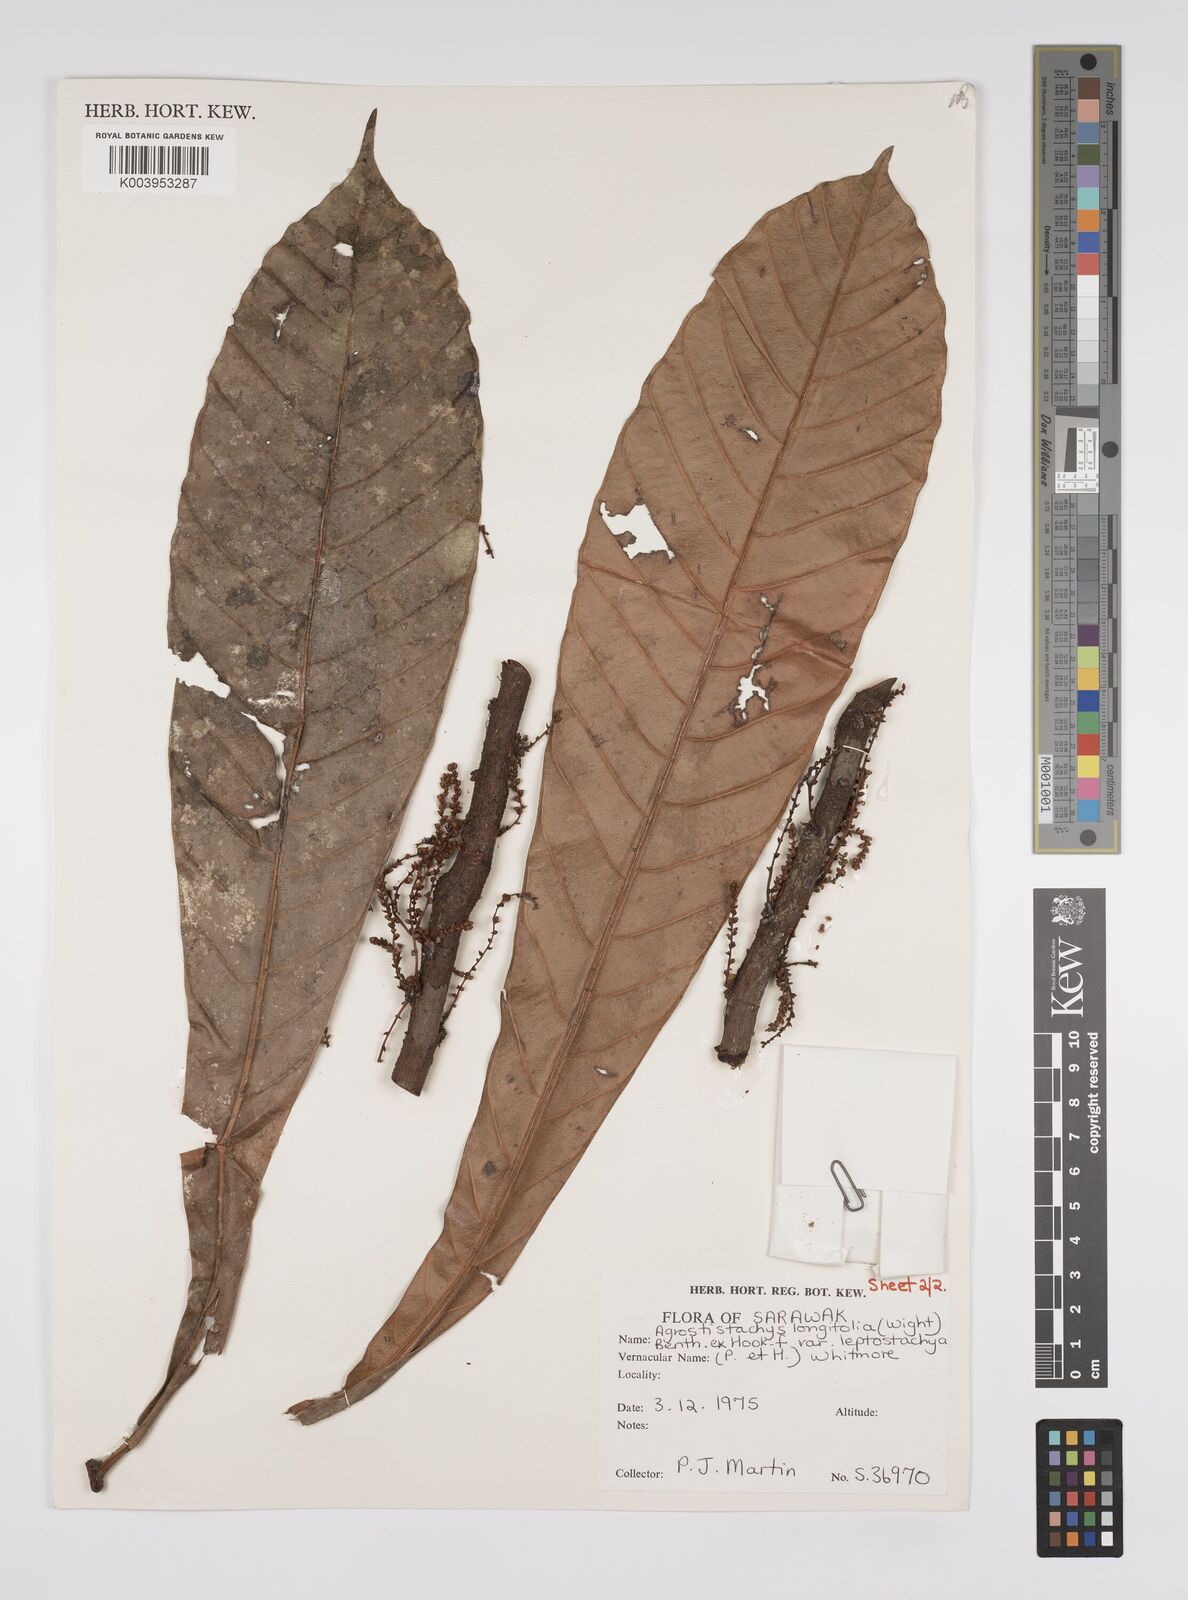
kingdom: Plantae
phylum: Tracheophyta
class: Magnoliopsida
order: Malpighiales
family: Euphorbiaceae
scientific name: Euphorbiaceae
